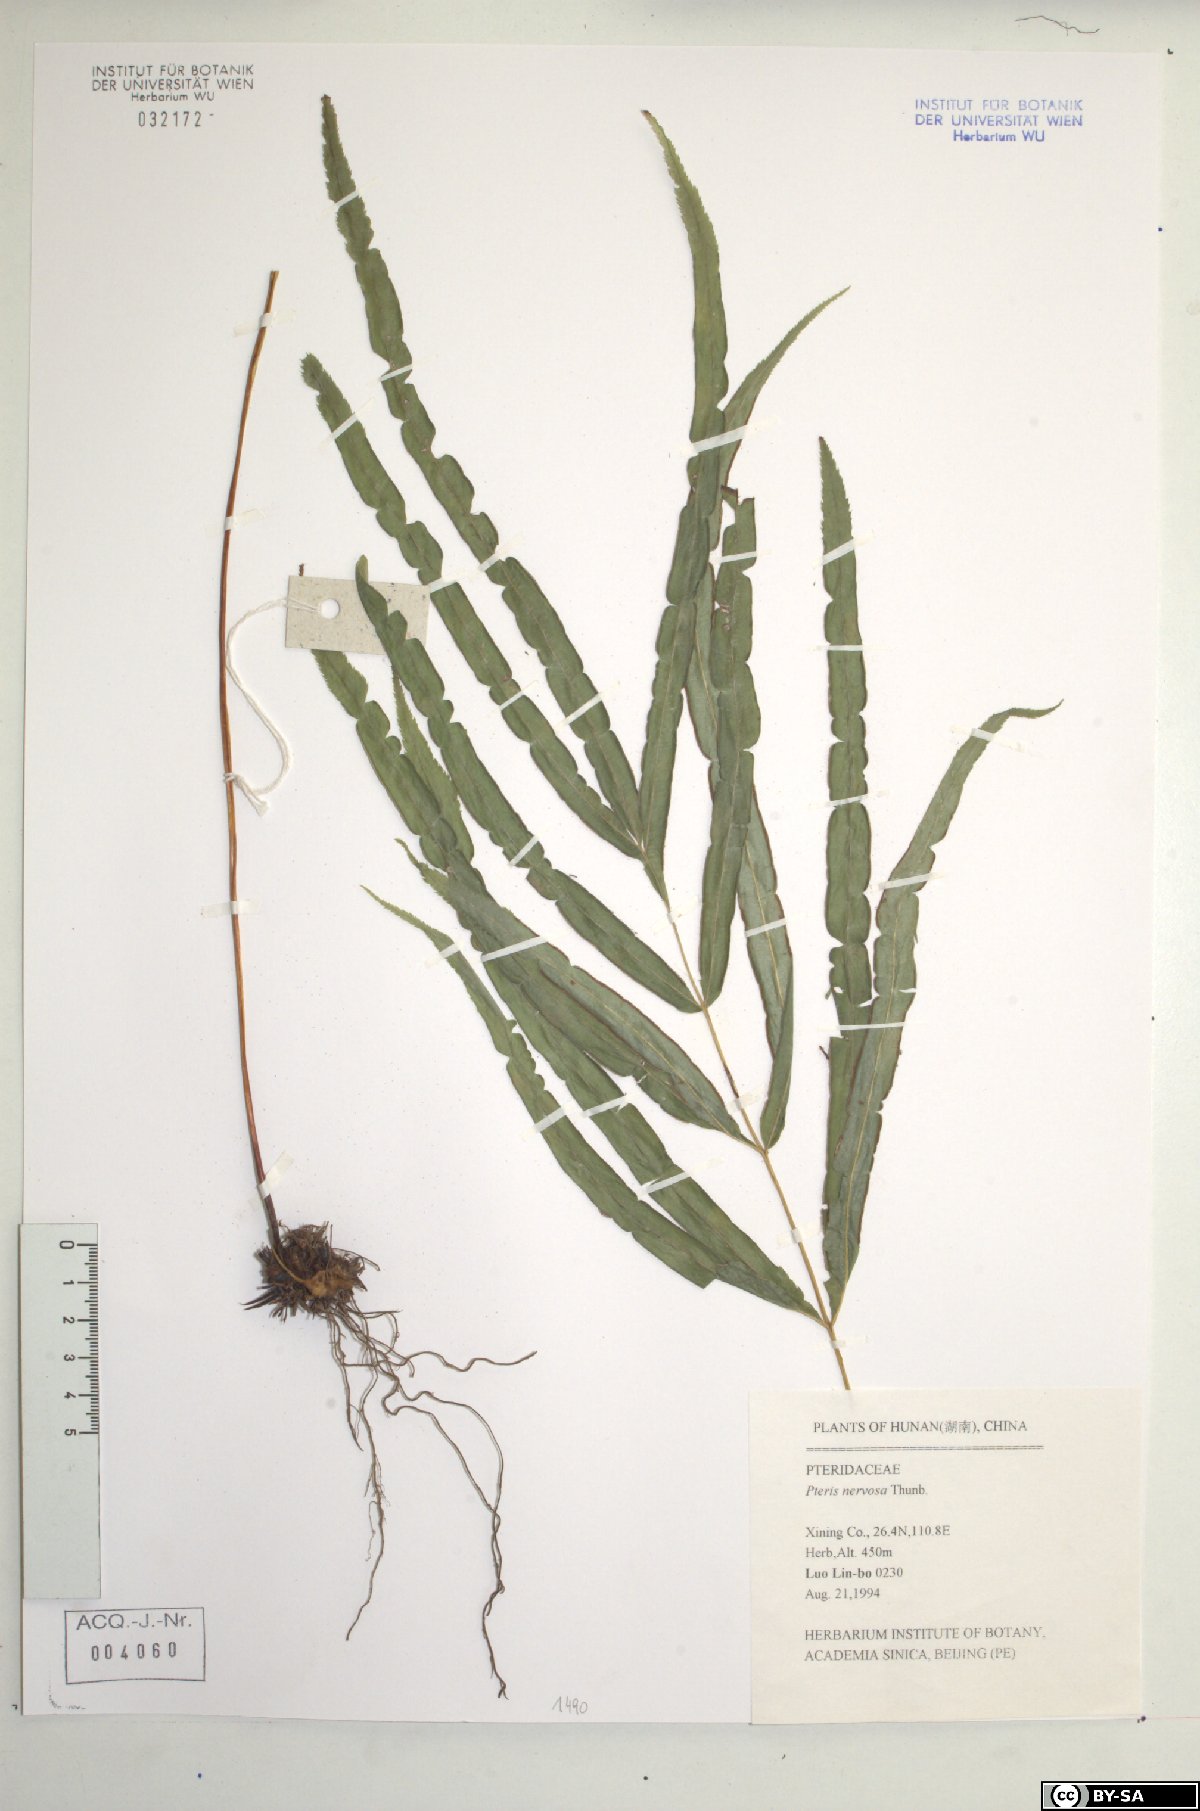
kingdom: Plantae
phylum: Tracheophyta
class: Polypodiopsida
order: Polypodiales
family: Pteridaceae
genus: Pteris
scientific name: Pteris cretica
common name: Ribbon fern
